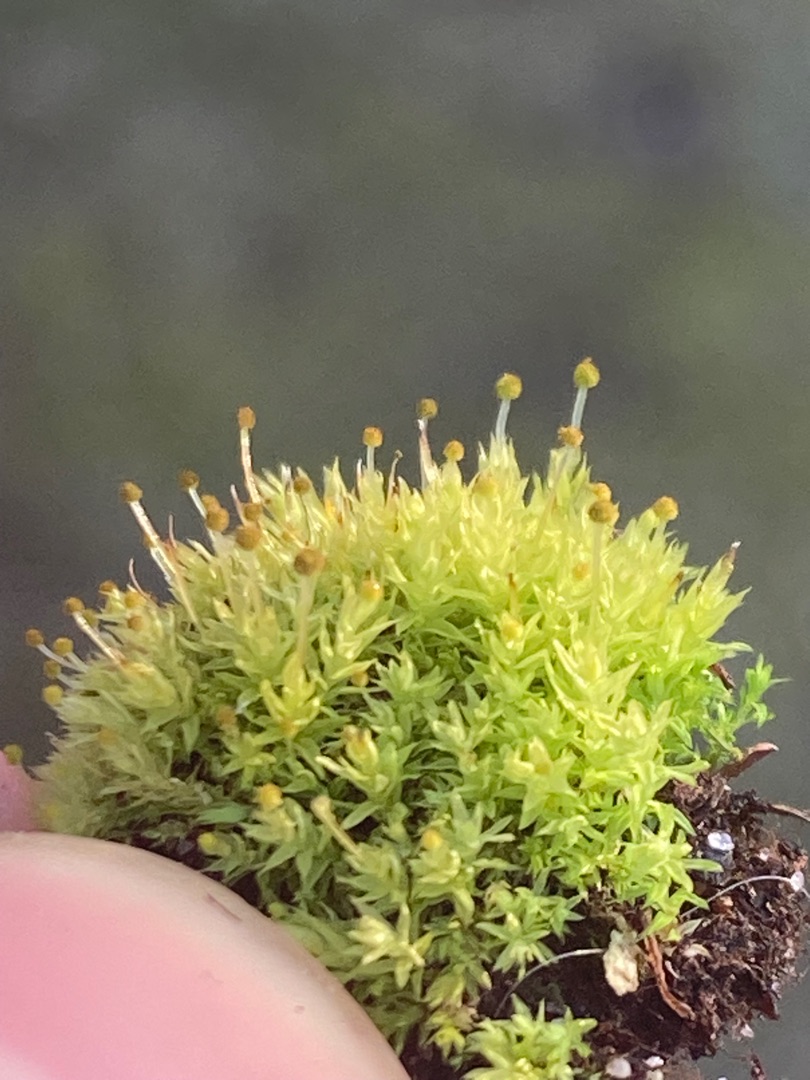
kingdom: Plantae
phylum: Bryophyta
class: Bryopsida
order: Aulacomniales
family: Aulacomniaceae
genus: Aulacomnium
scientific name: Aulacomnium androgynum
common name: Kugle-filtmos
